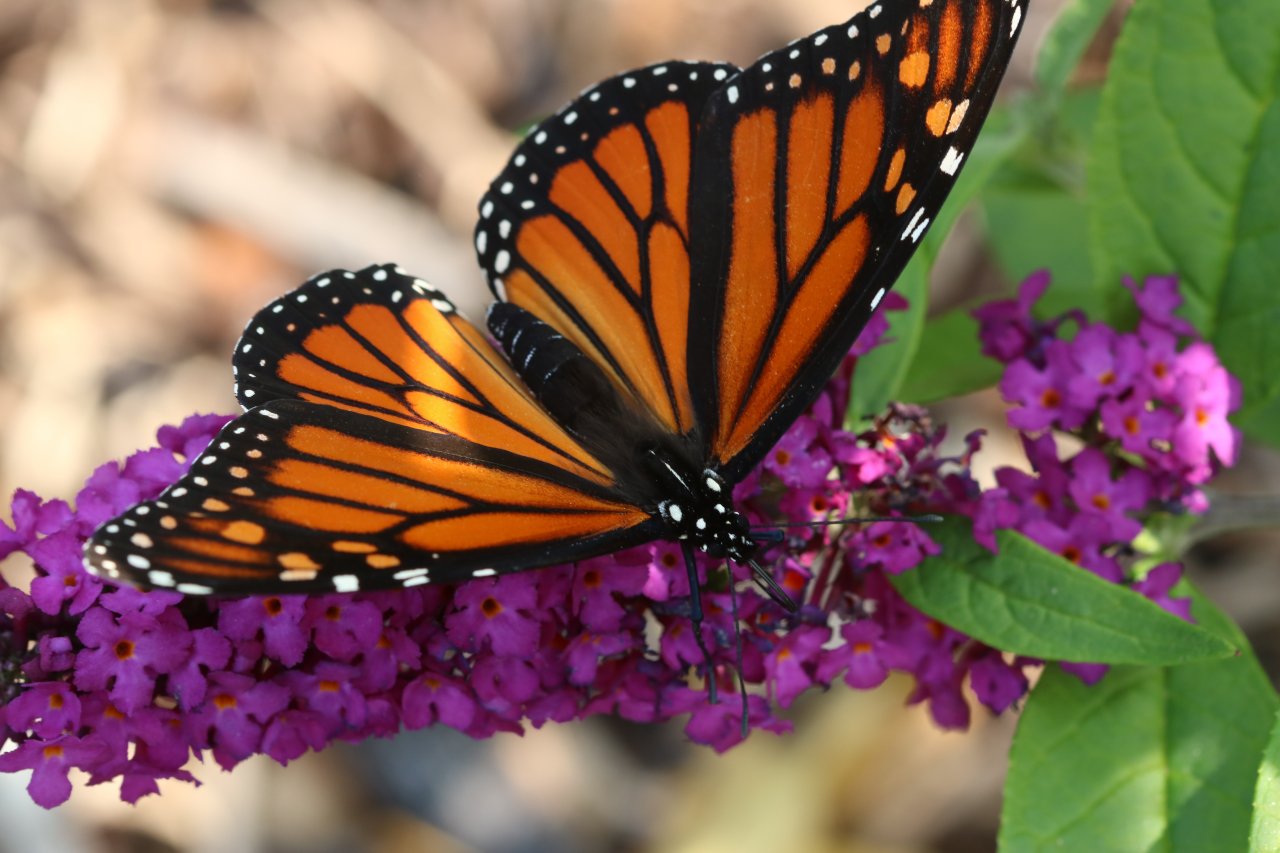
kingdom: Animalia
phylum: Arthropoda
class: Insecta
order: Lepidoptera
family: Nymphalidae
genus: Danaus
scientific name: Danaus plexippus
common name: Monarch
